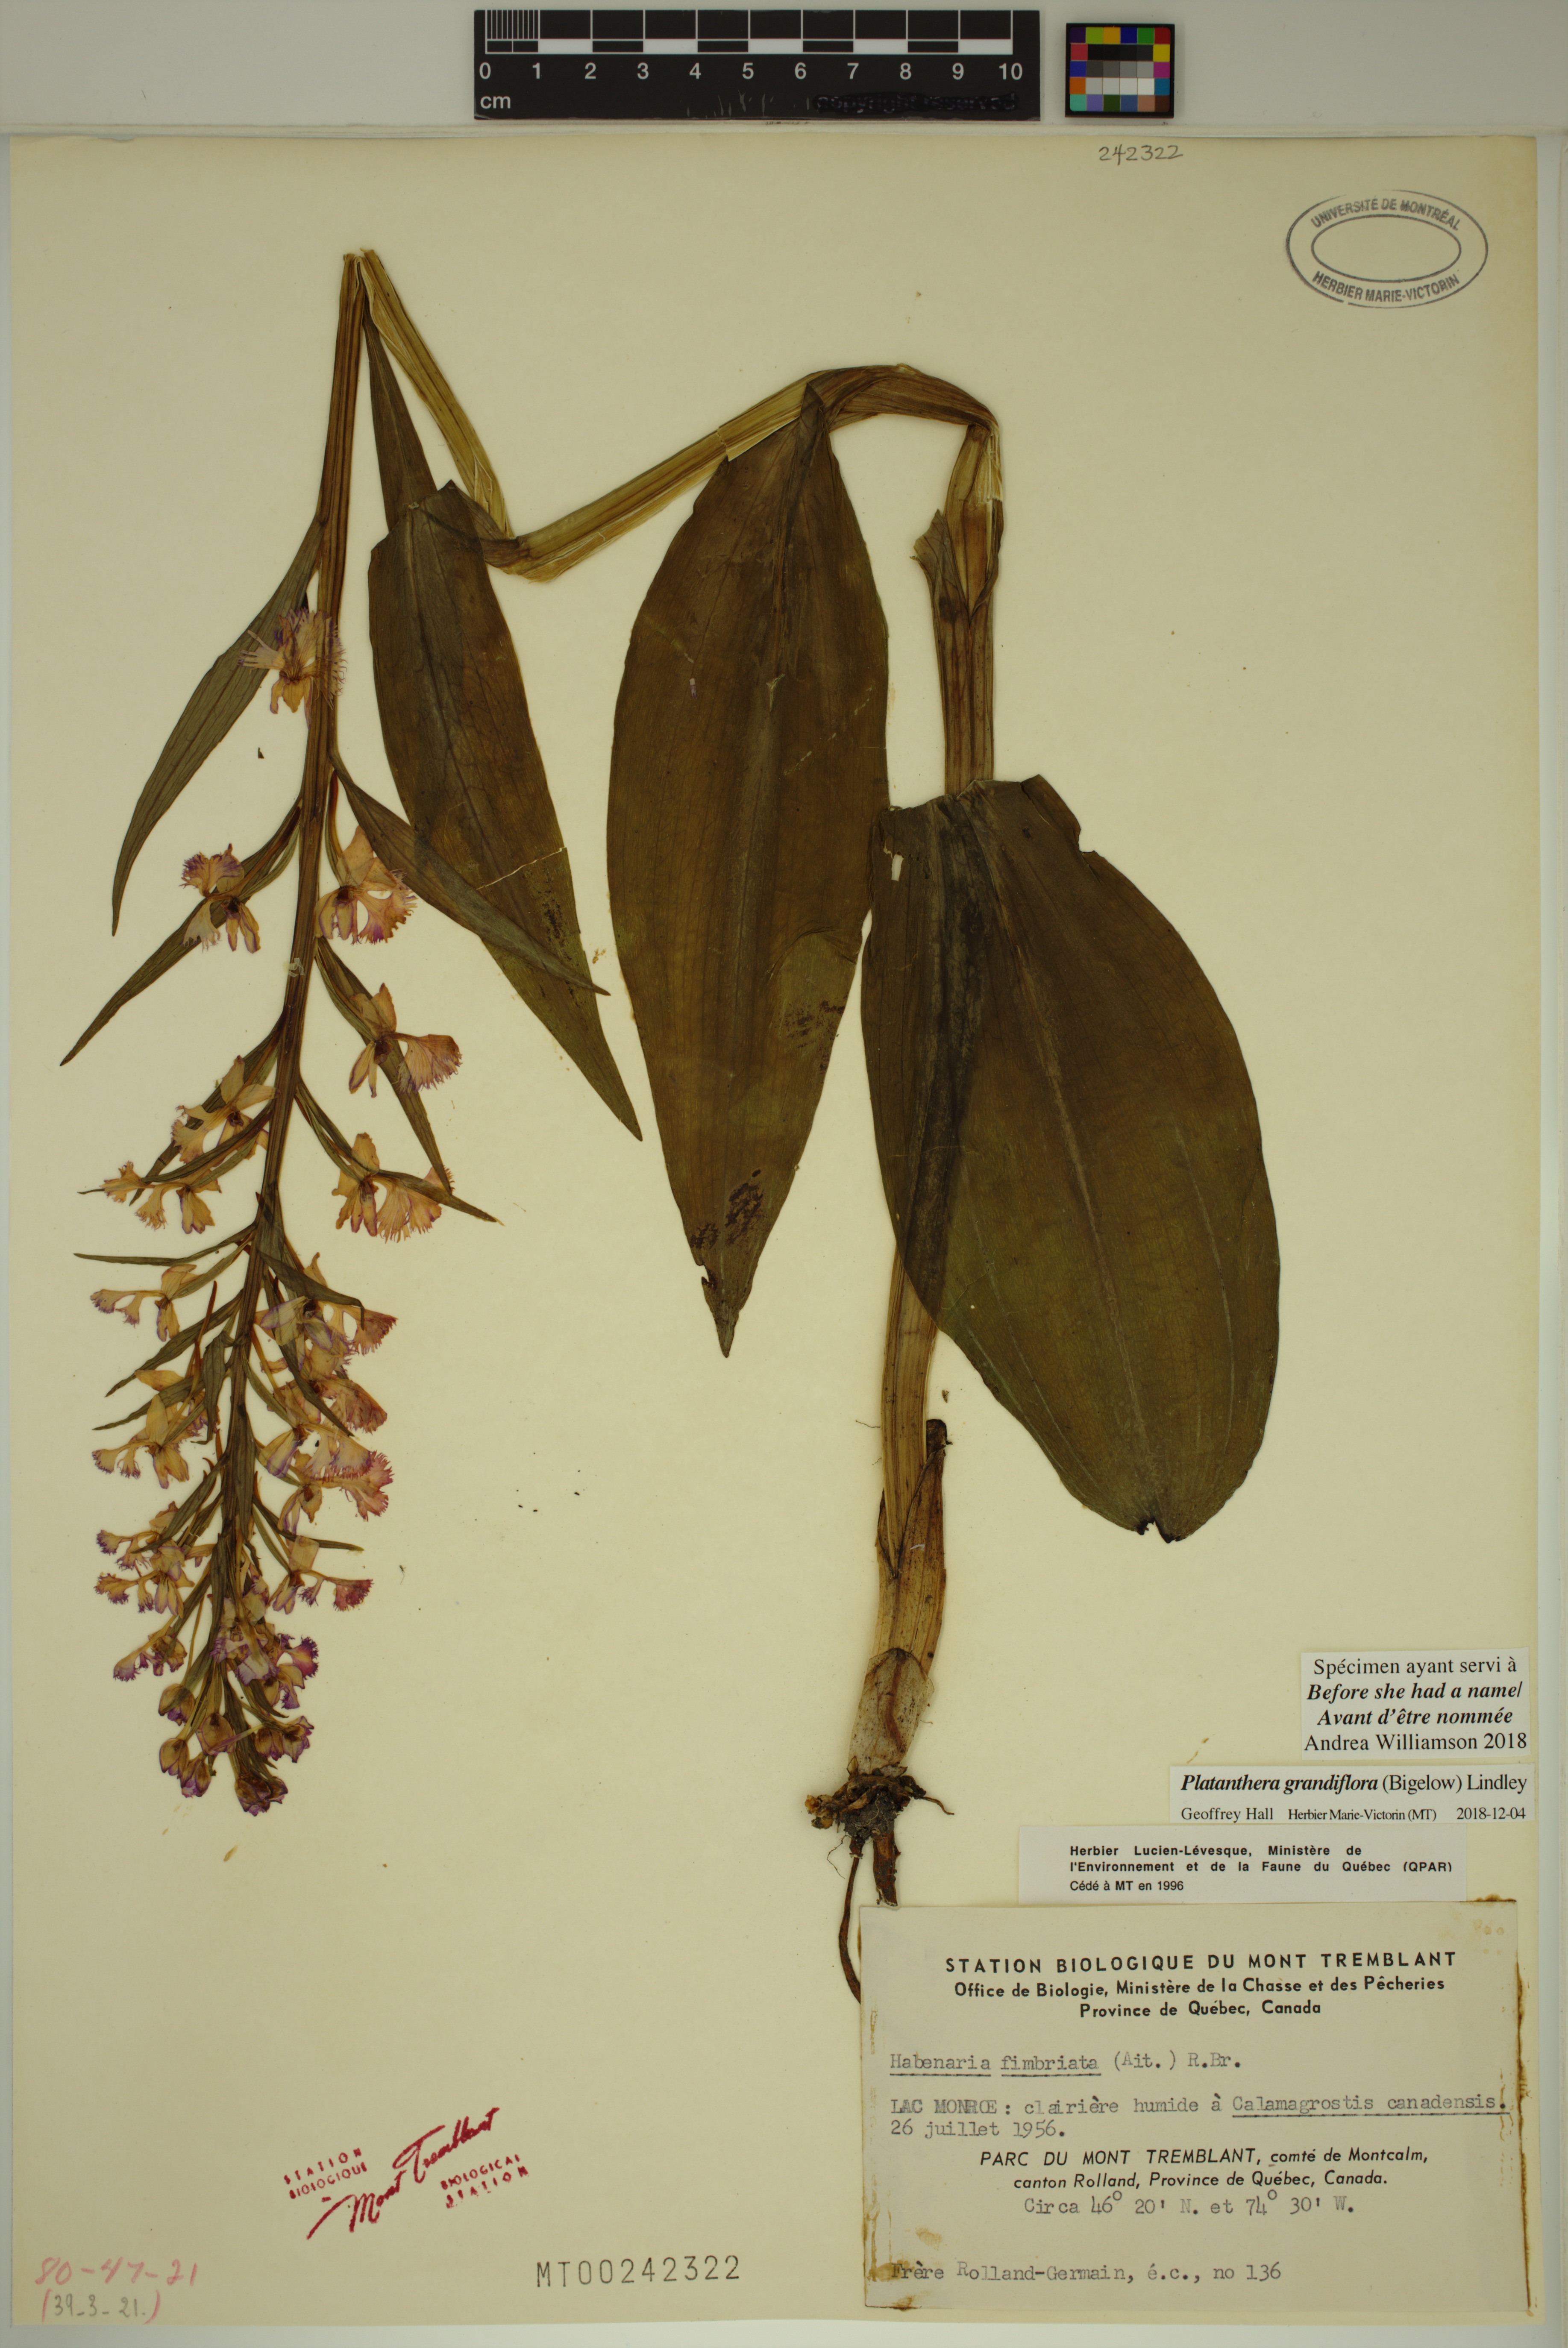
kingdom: Plantae
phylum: Tracheophyta
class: Liliopsida
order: Asparagales
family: Orchidaceae
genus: Platanthera
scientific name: Platanthera grandiflora
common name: Greater purple fringed orchid
